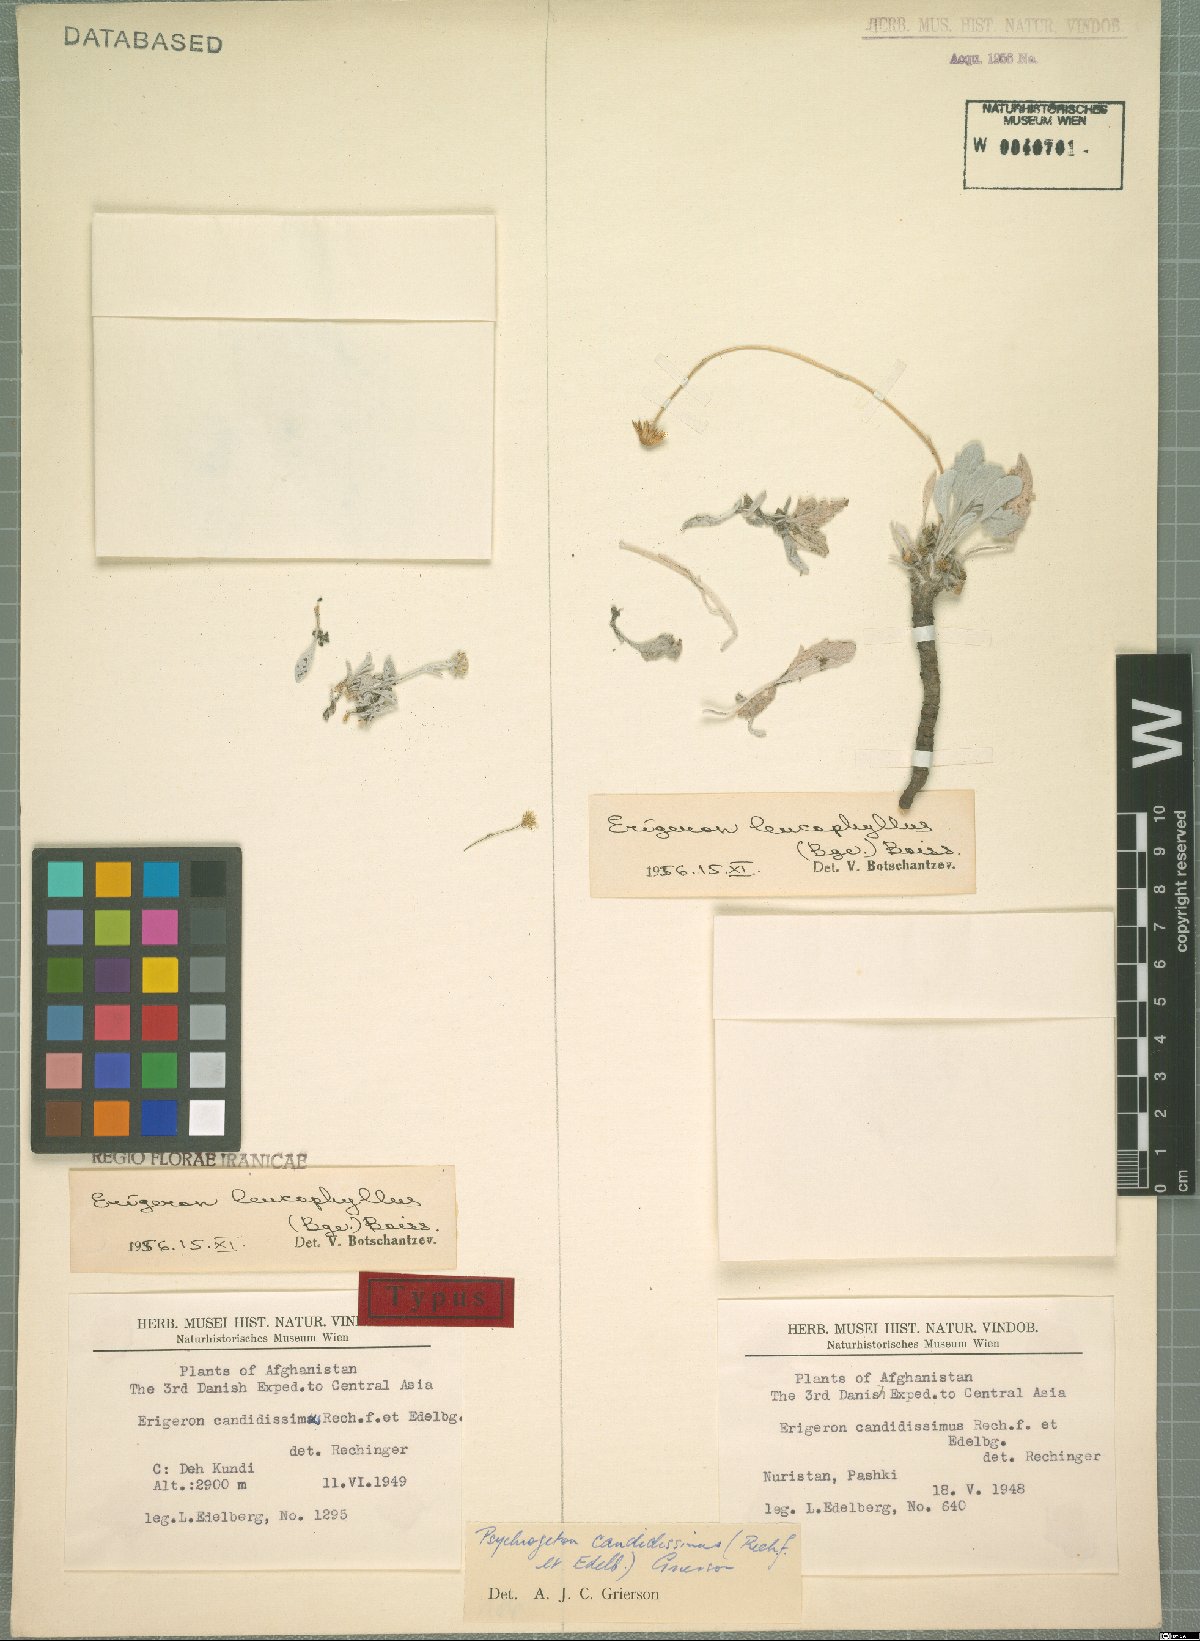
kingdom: Plantae
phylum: Tracheophyta
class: Magnoliopsida
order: Asterales
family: Asteraceae
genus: Psychrogeton
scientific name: Psychrogeton candidissimus
